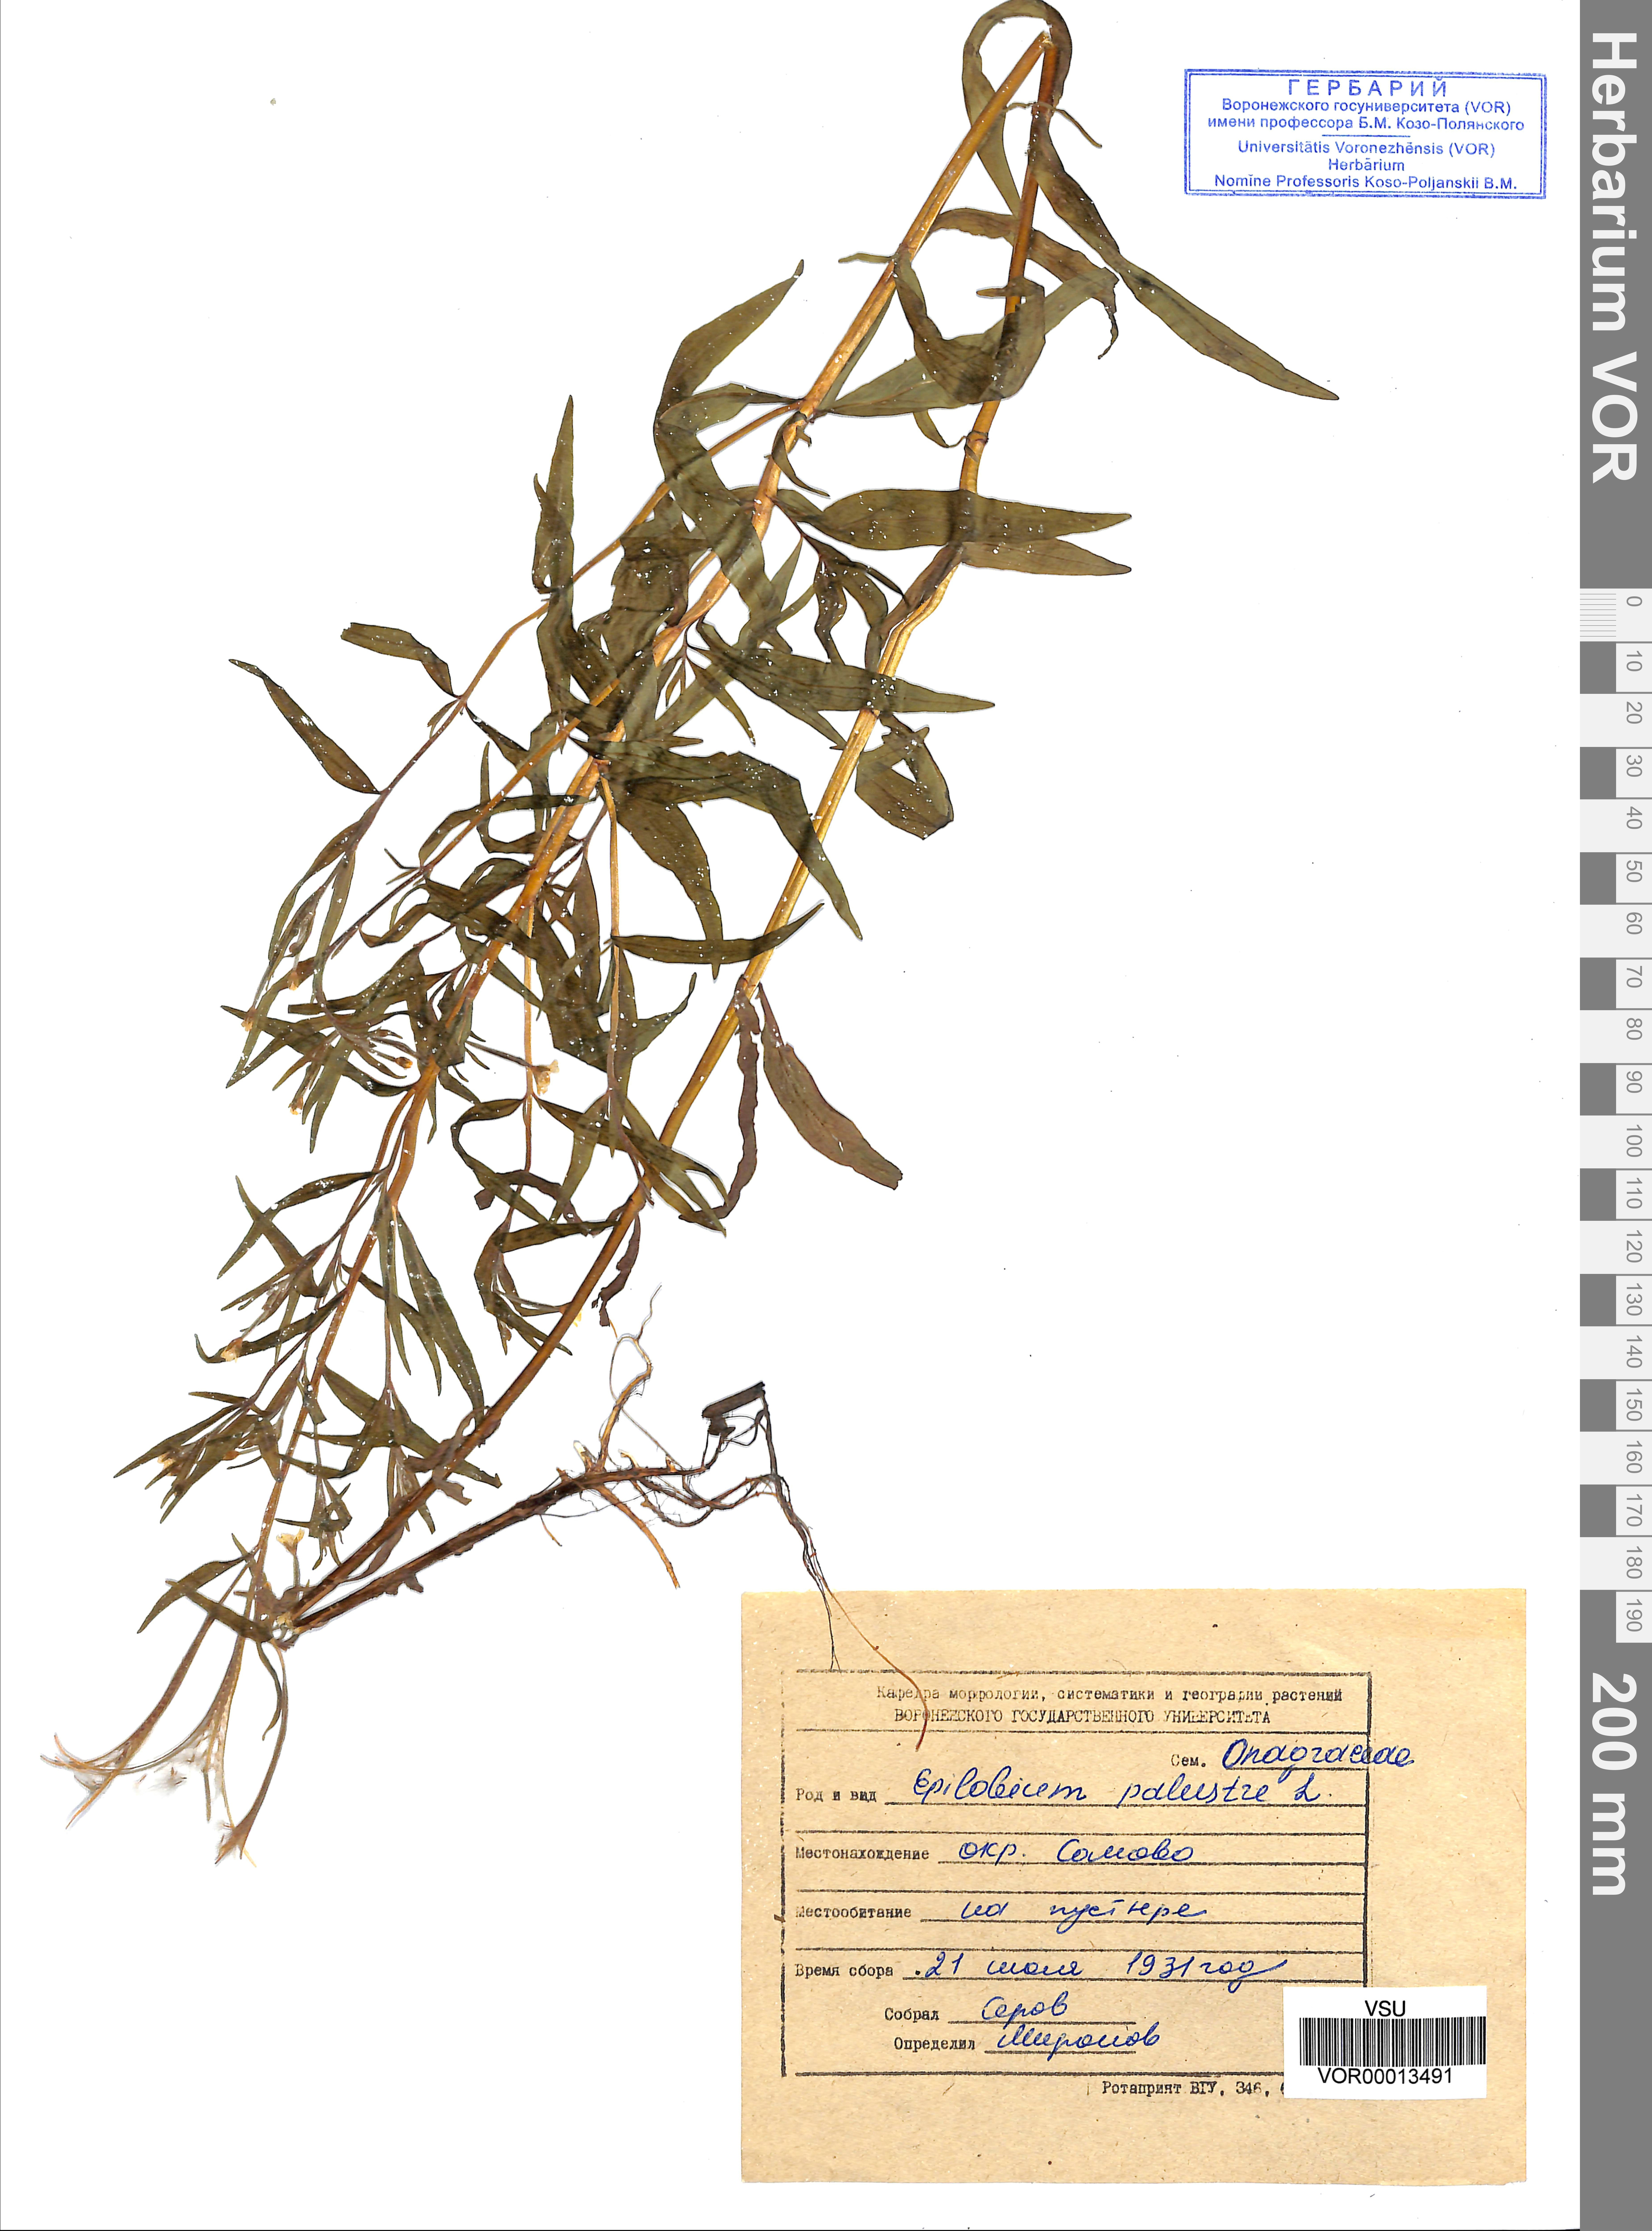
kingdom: Plantae
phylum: Tracheophyta
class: Magnoliopsida
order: Myrtales
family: Onagraceae
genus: Epilobium
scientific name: Epilobium palustre
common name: Marsh willowherb
